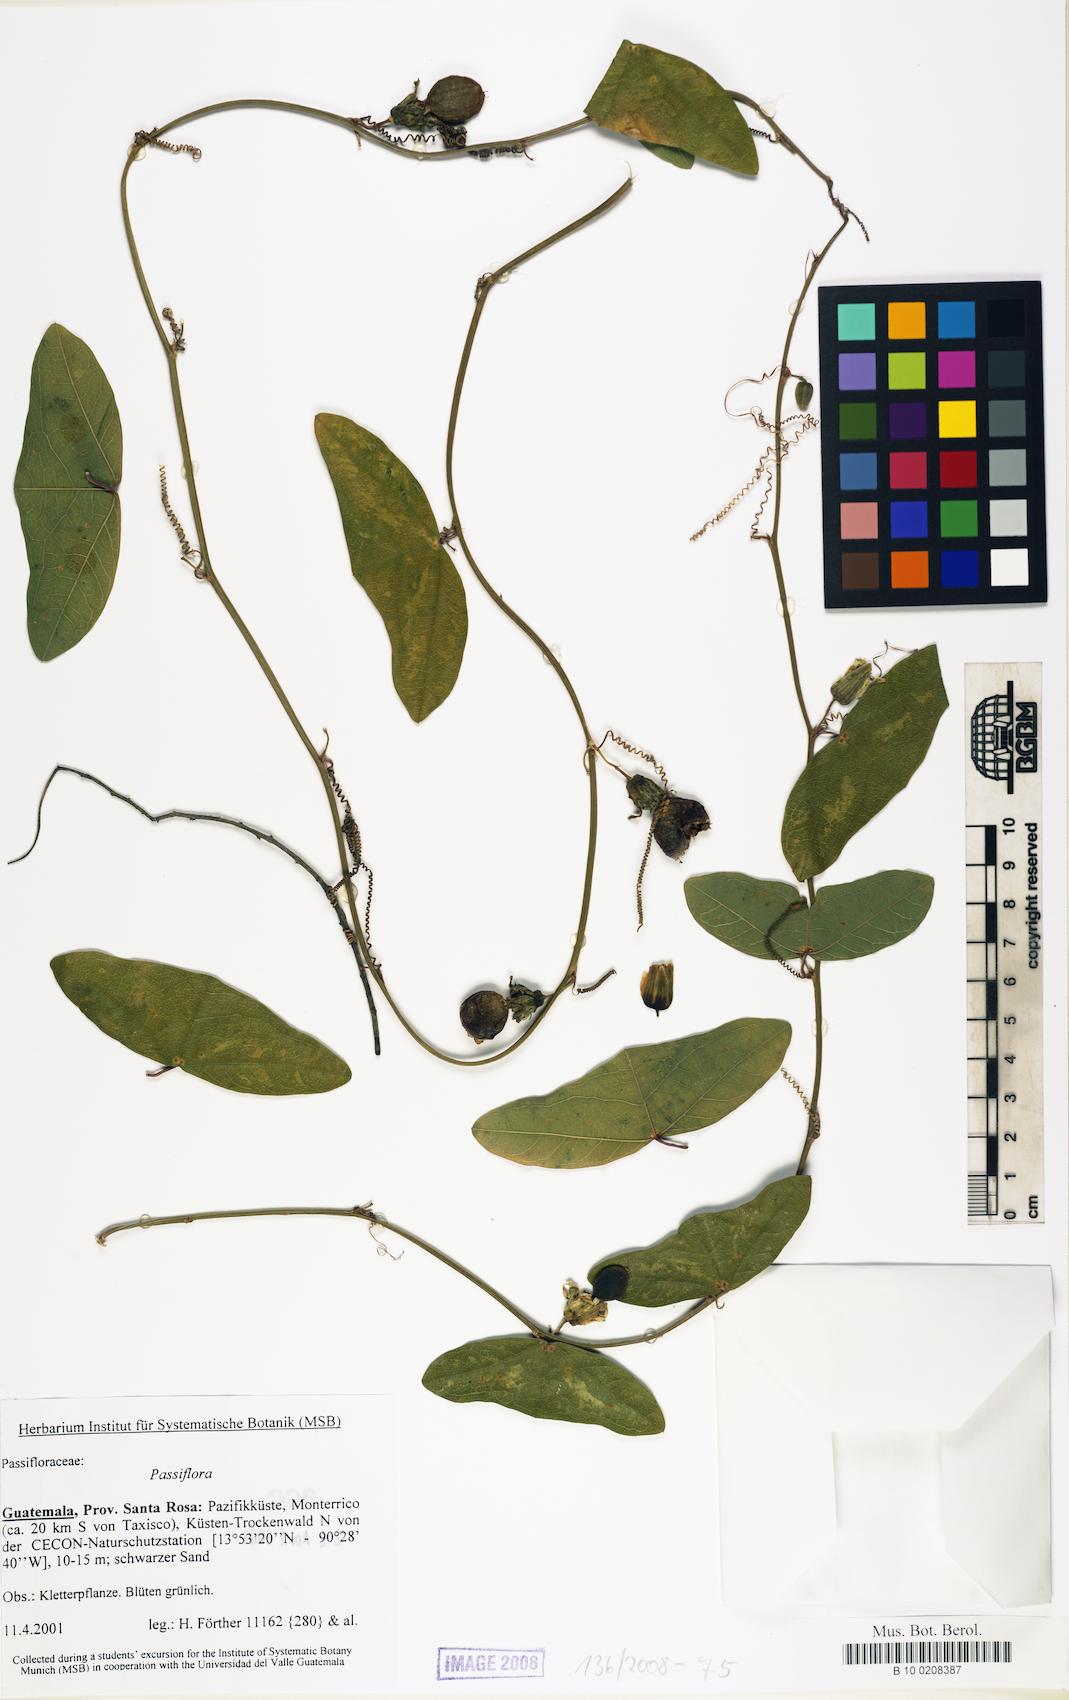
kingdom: Plantae
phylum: Tracheophyta
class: Magnoliopsida
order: Malpighiales
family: Passifloraceae
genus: Passiflora
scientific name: Passiflora
